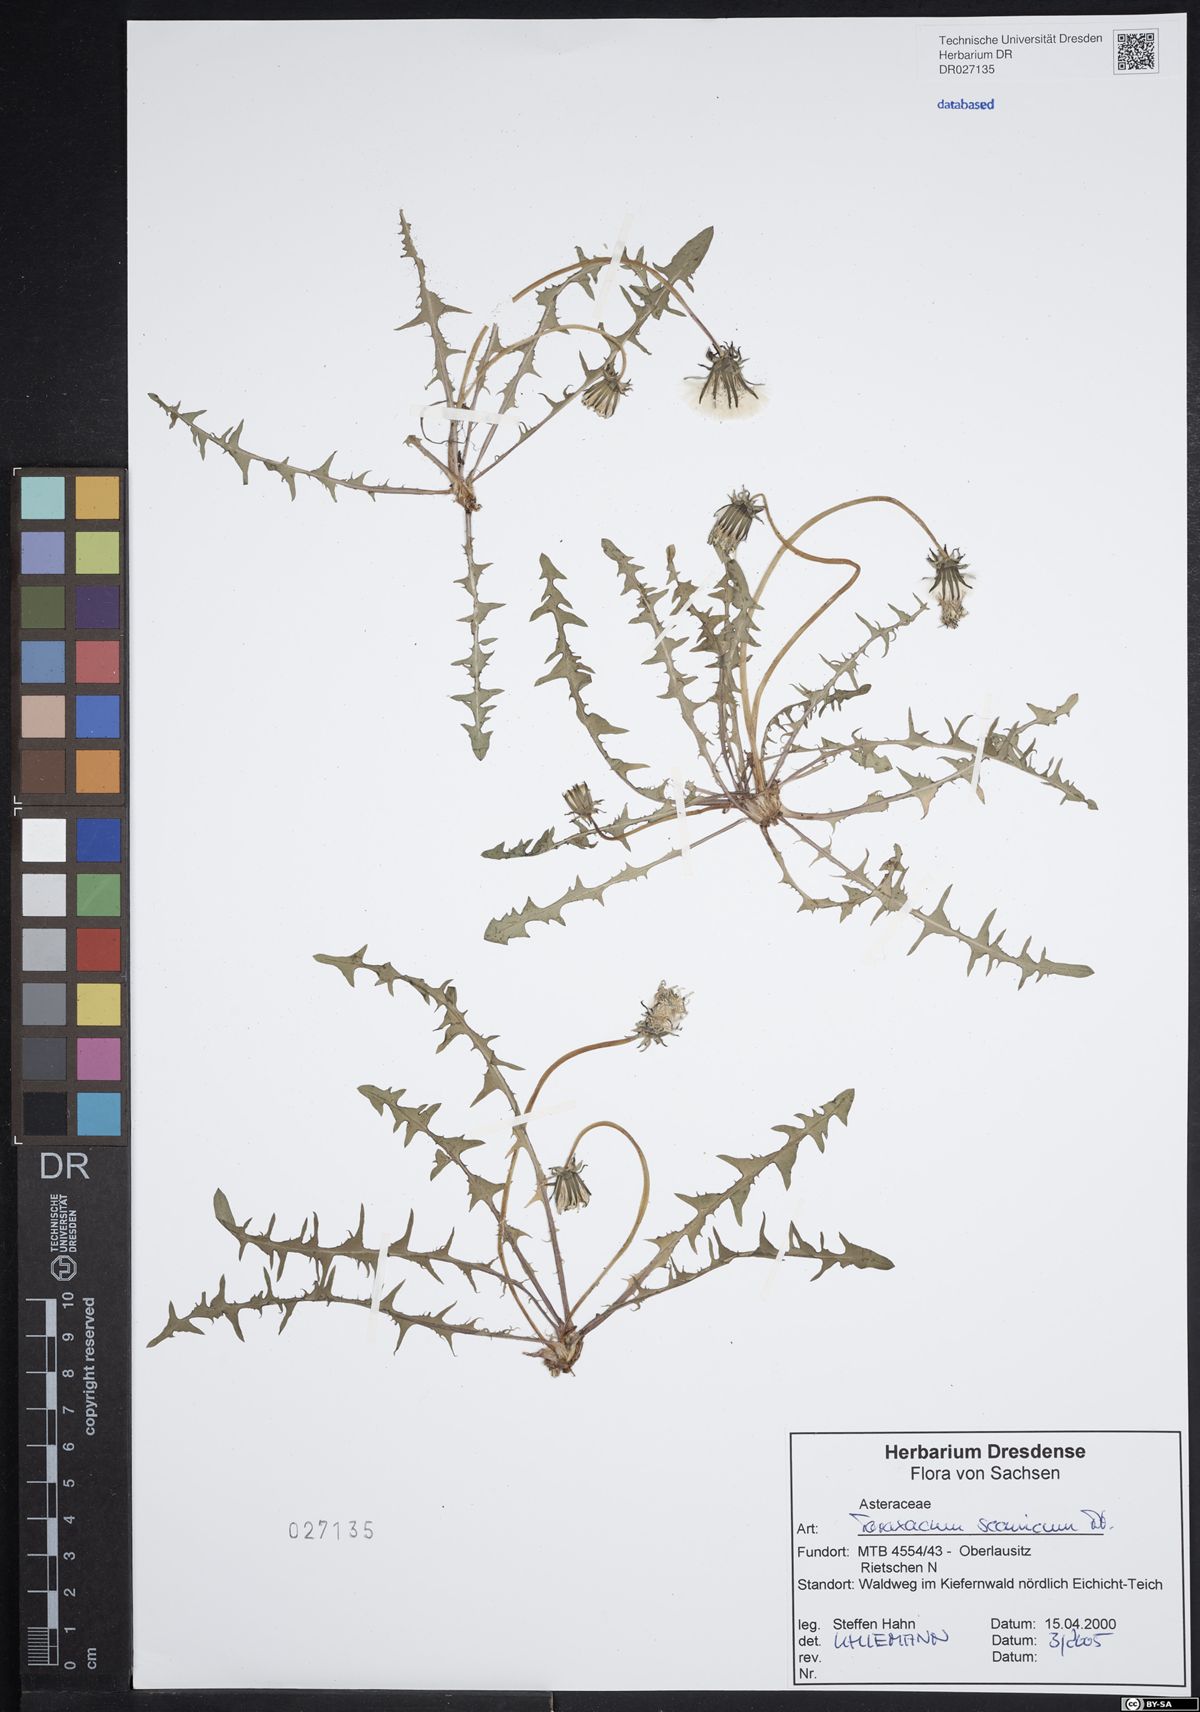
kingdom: Plantae
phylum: Tracheophyta
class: Magnoliopsida
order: Asterales
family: Asteraceae
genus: Taraxacum
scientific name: Taraxacum scanicum
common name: Skåne dandelion
